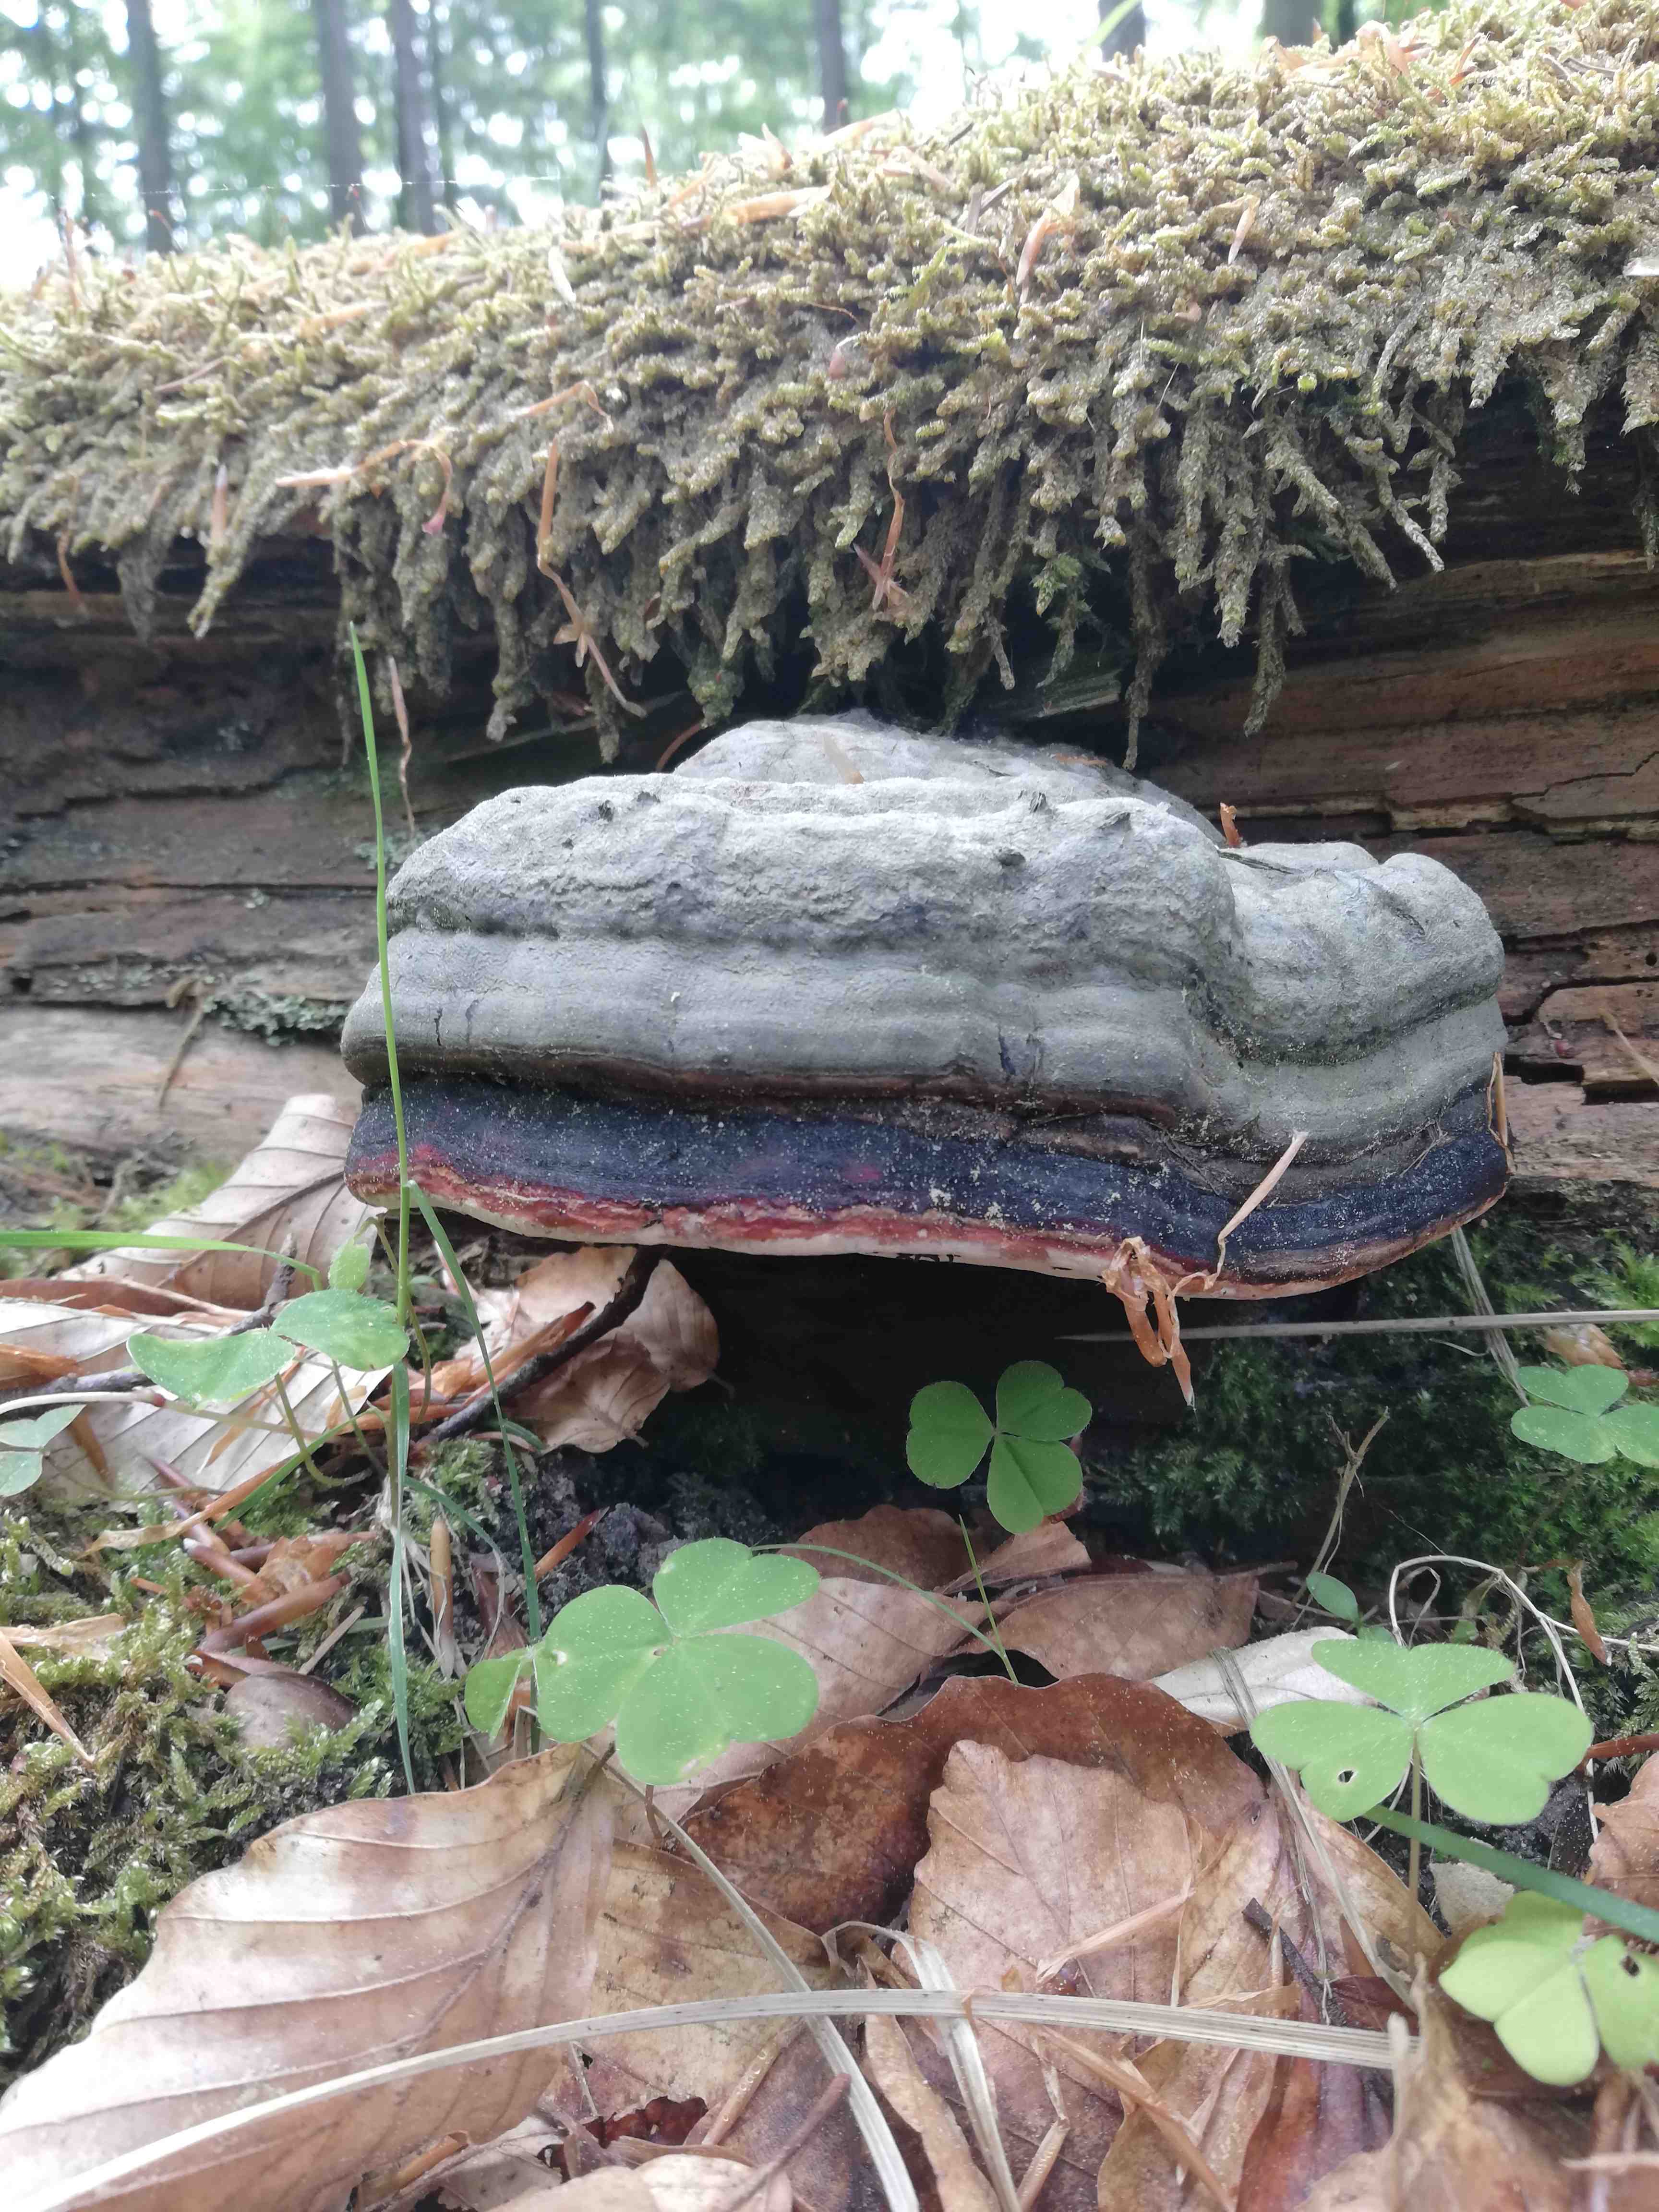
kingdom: Fungi
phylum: Basidiomycota
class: Agaricomycetes
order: Polyporales
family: Fomitopsidaceae
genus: Fomitopsis
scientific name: Fomitopsis pinicola
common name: randbæltet hovporesvamp
